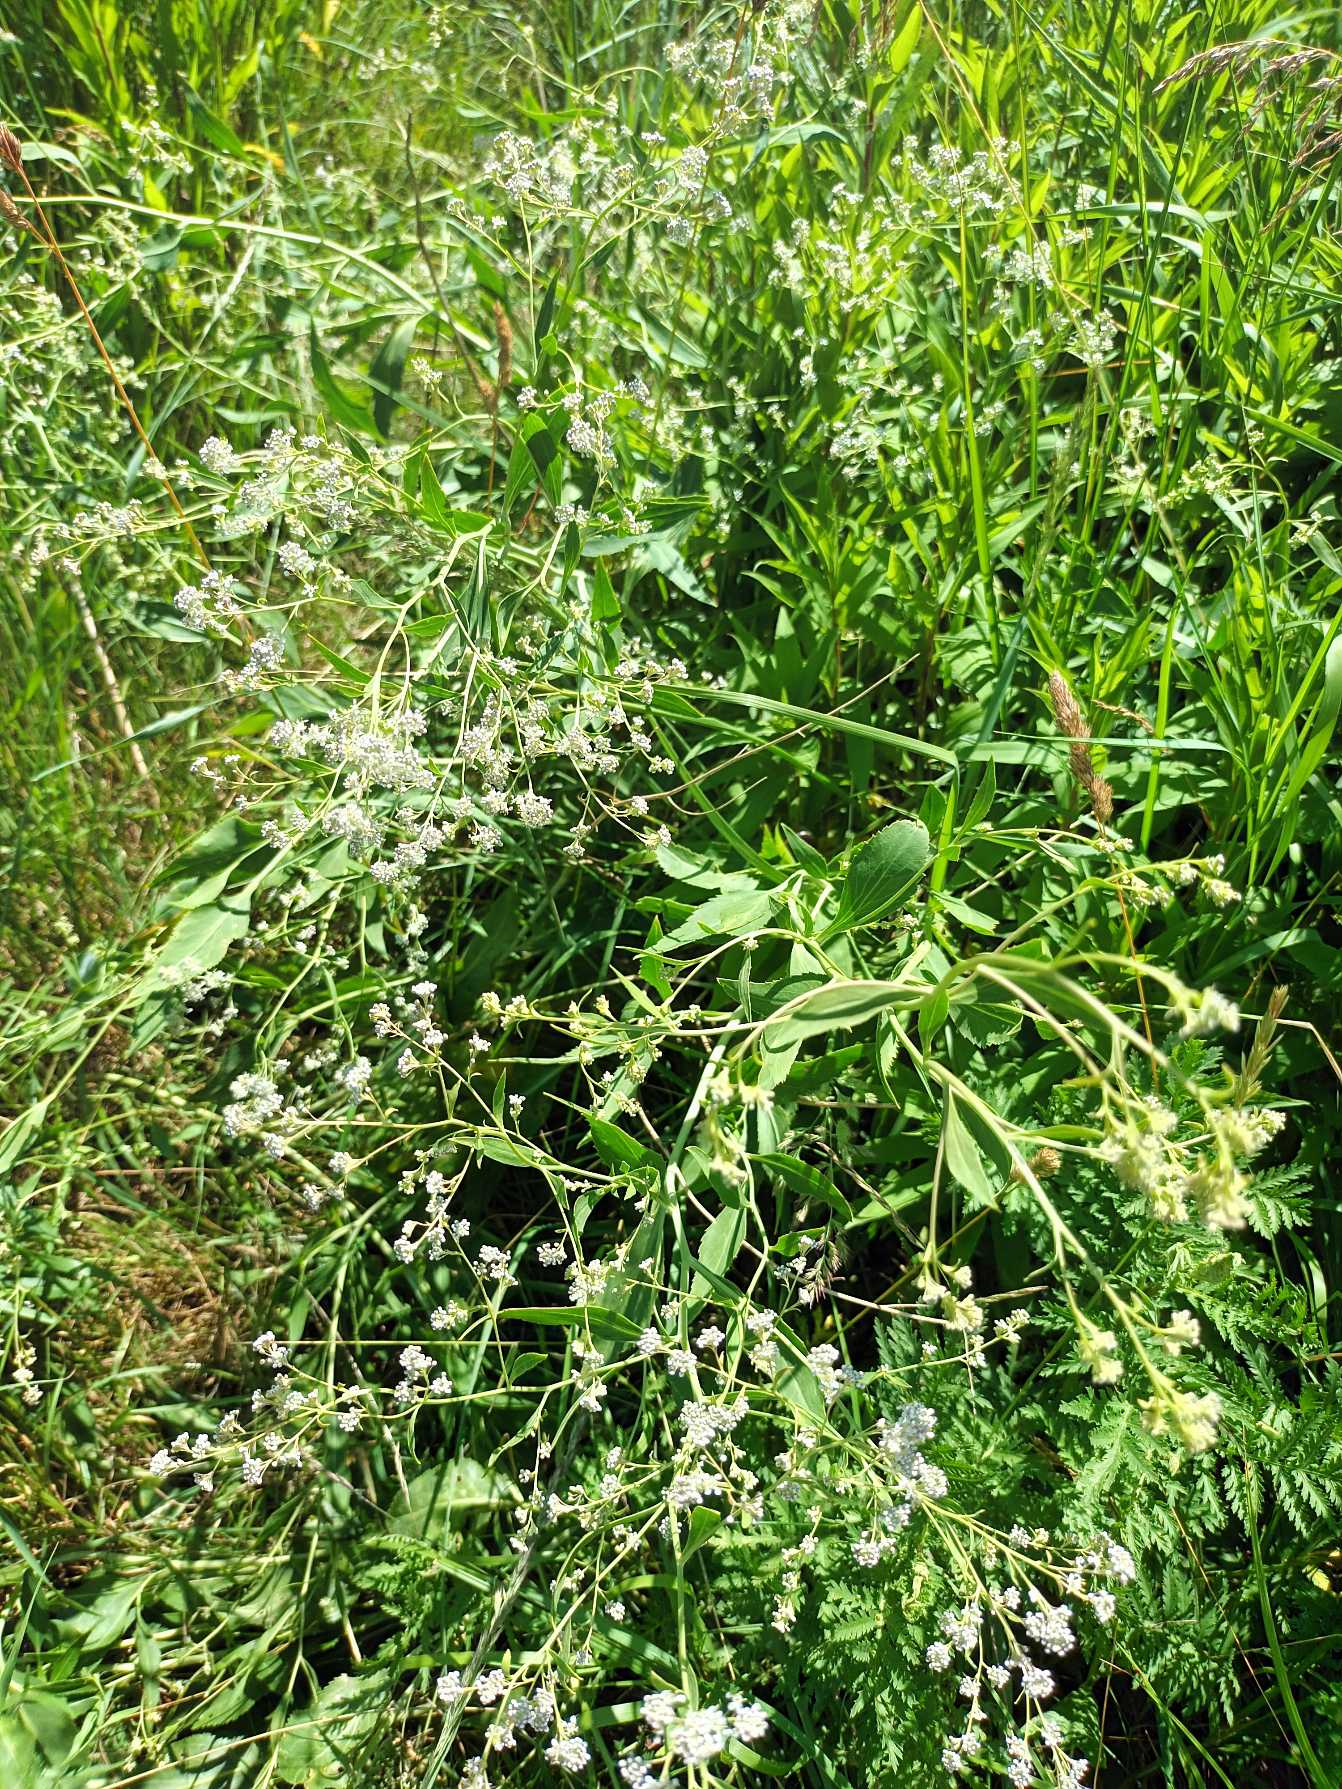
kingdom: Plantae
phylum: Tracheophyta
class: Magnoliopsida
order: Brassicales
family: Brassicaceae
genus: Lepidium
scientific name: Lepidium latifolium
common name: Strand-karse
